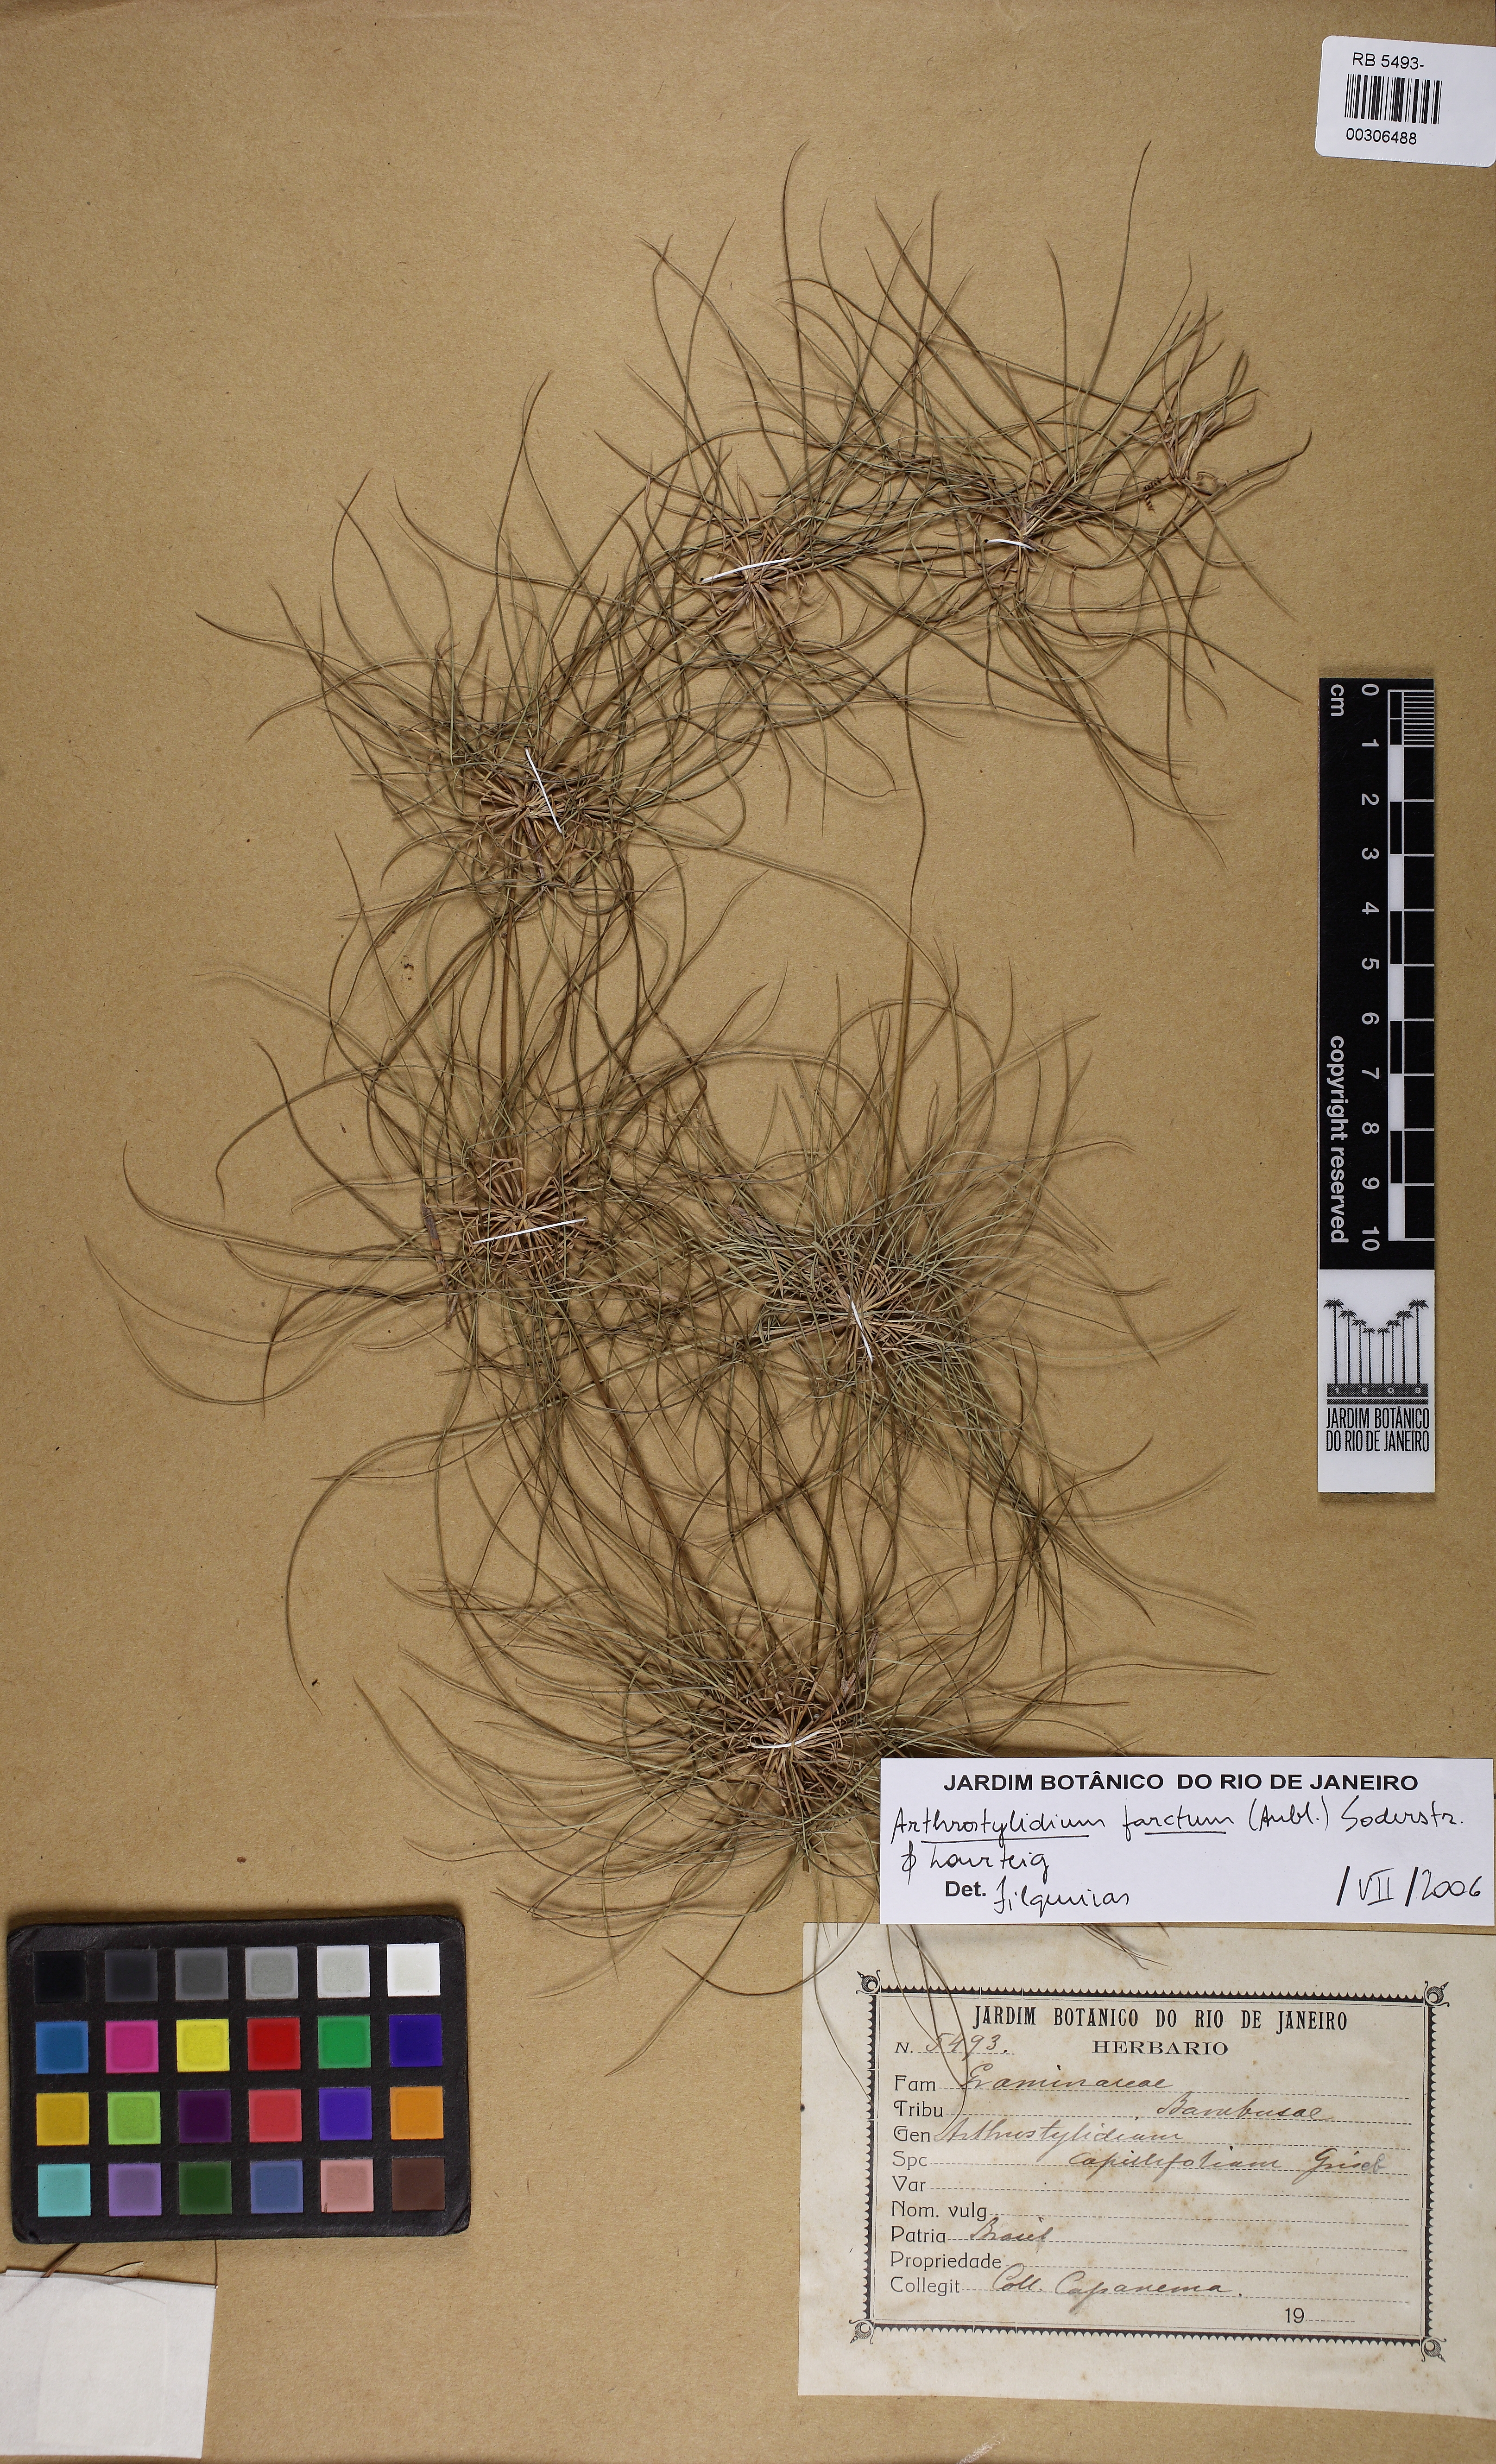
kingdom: Plantae
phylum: Tracheophyta
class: Liliopsida
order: Poales
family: Poaceae
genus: Tibisia
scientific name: Tibisia farcta
